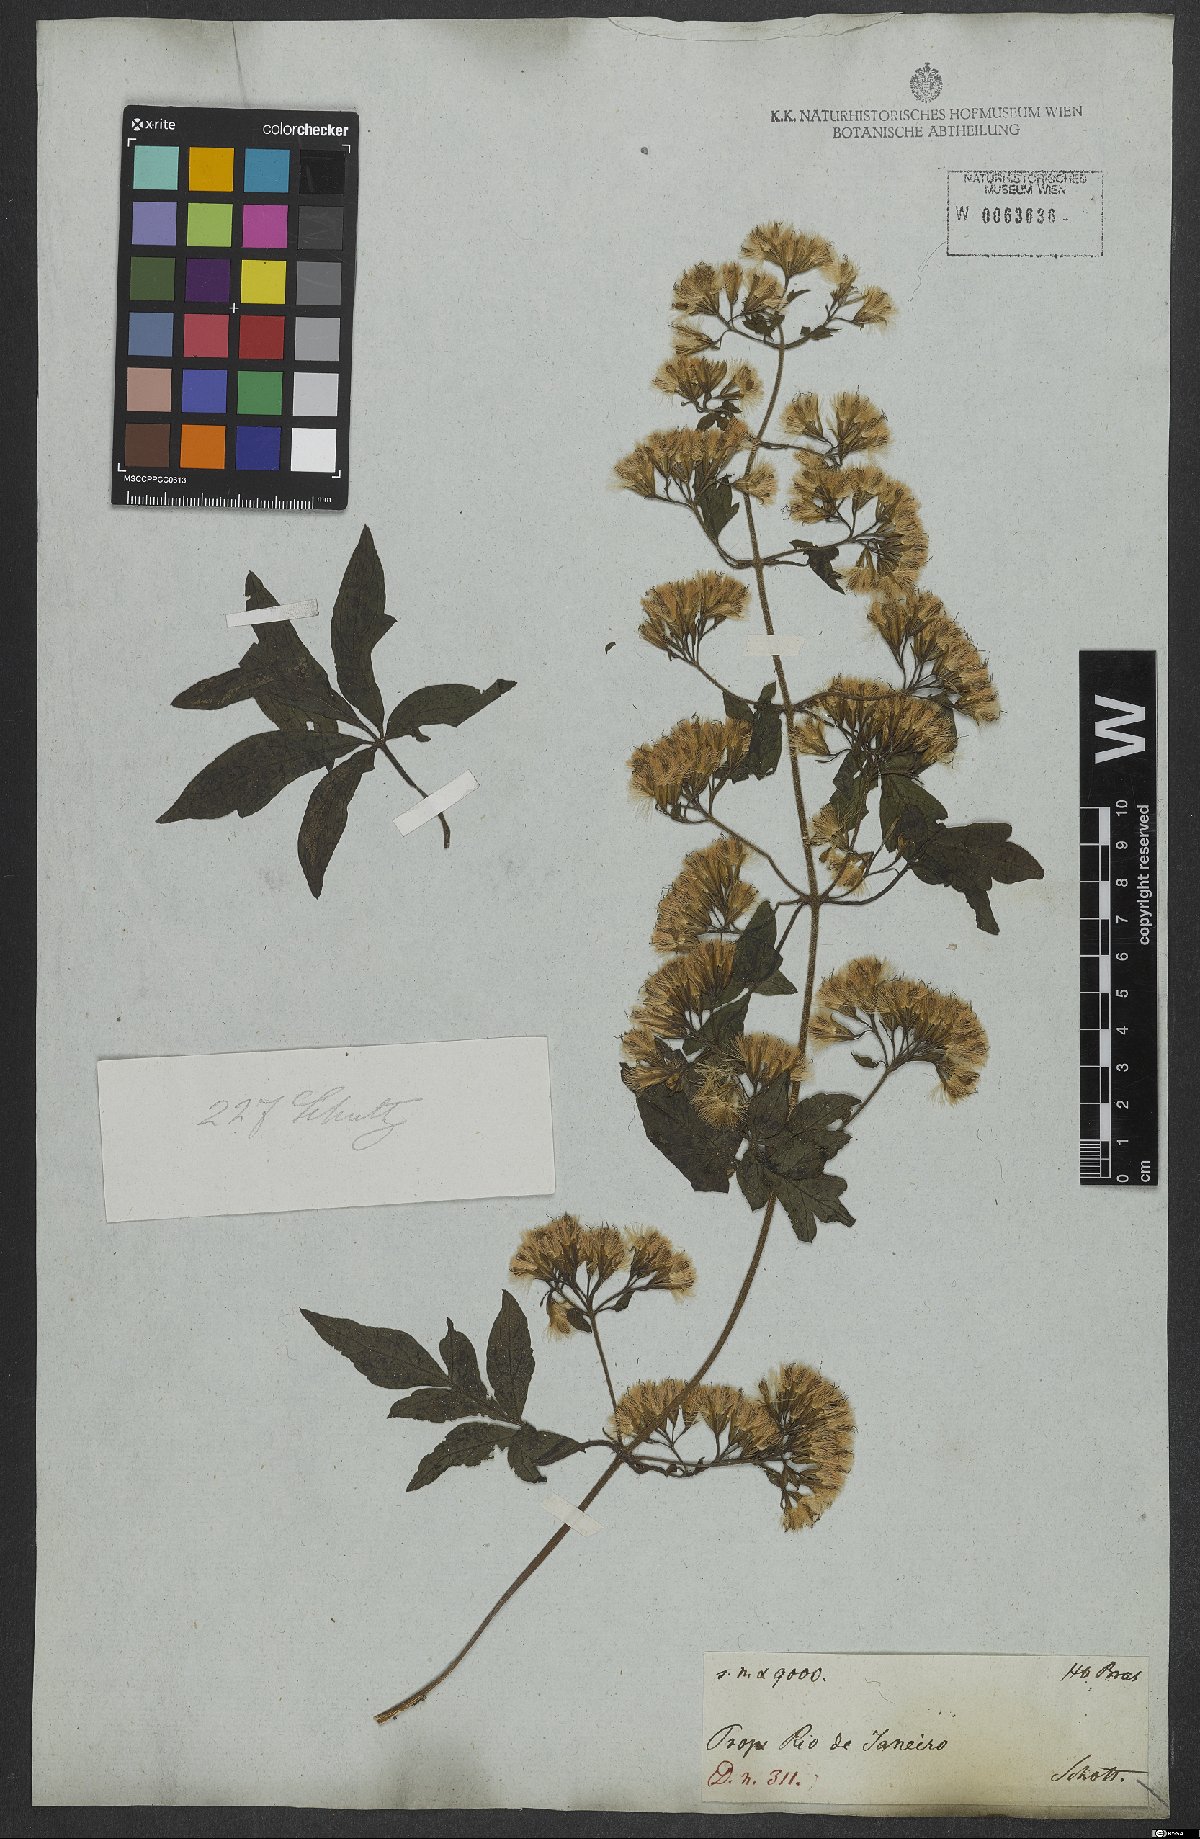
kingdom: Plantae
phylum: Tracheophyta
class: Magnoliopsida
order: Asterales
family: Asteraceae
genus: Mikania
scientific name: Mikania ternata
